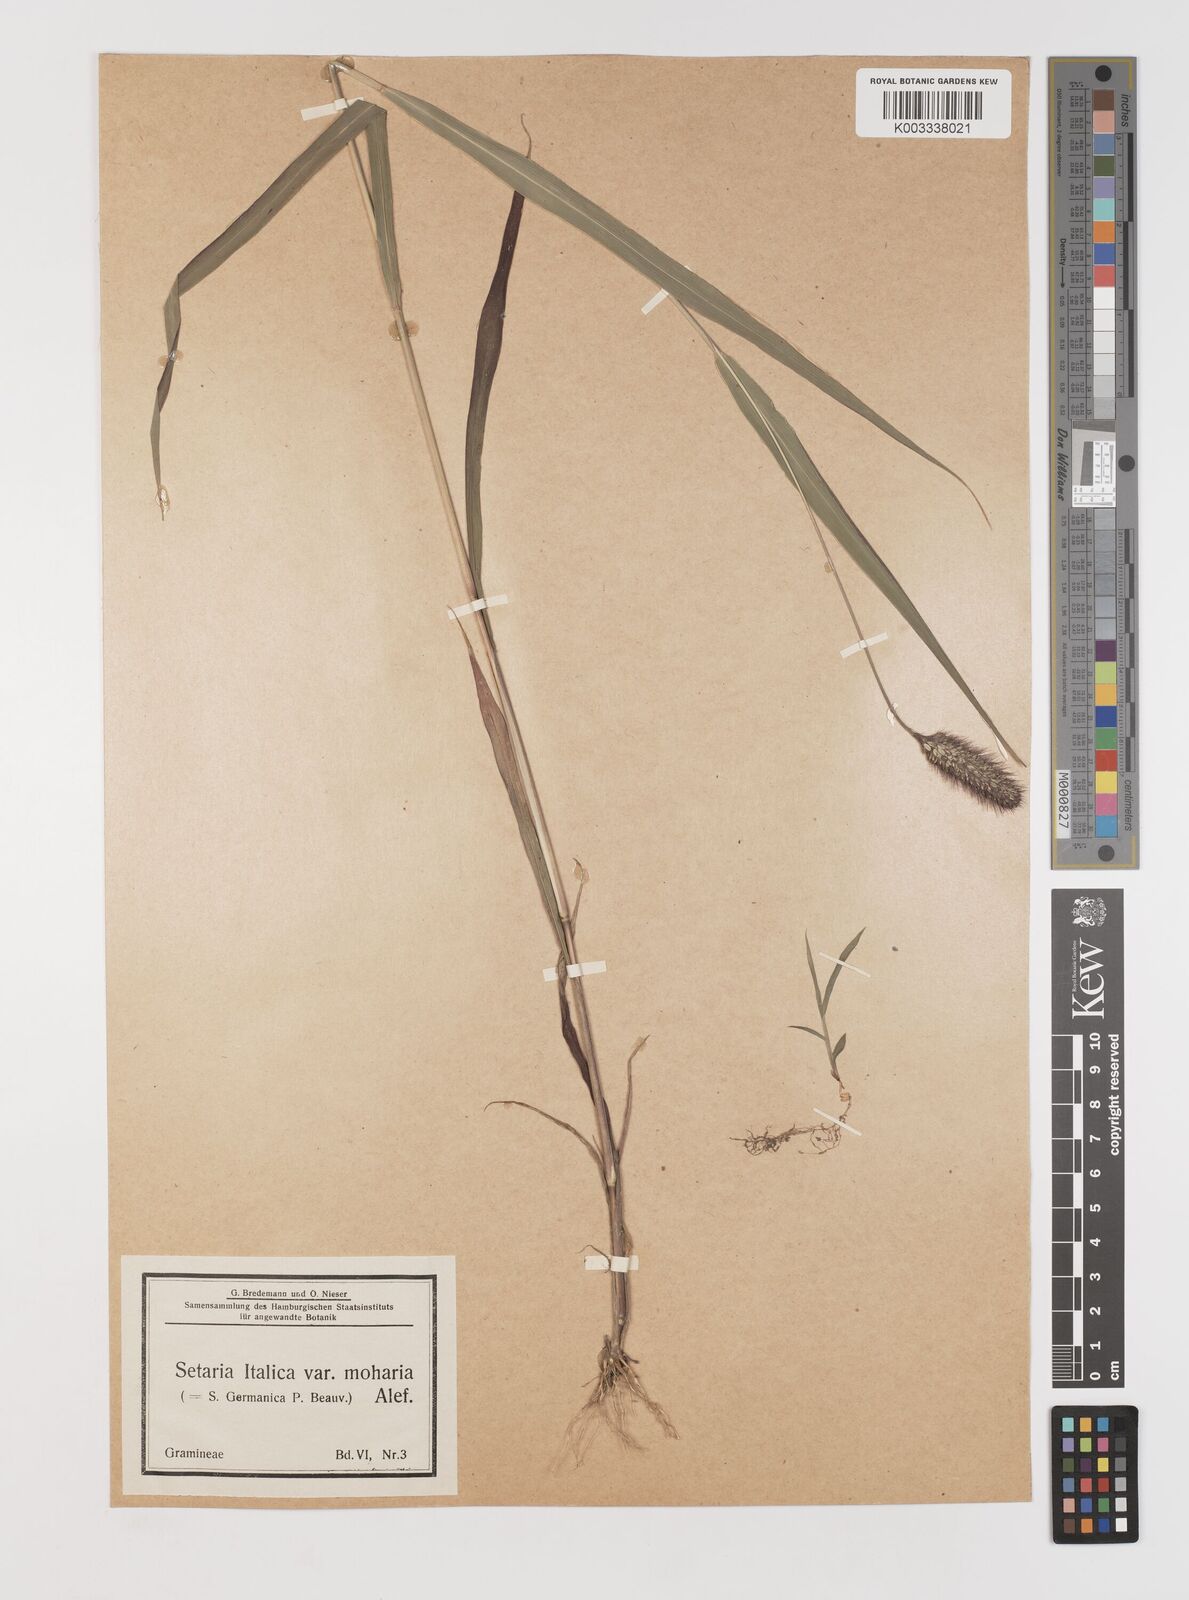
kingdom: Plantae
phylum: Tracheophyta
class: Liliopsida
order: Poales
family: Poaceae
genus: Setaria
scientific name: Setaria italica
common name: Foxtail bristle-grass
